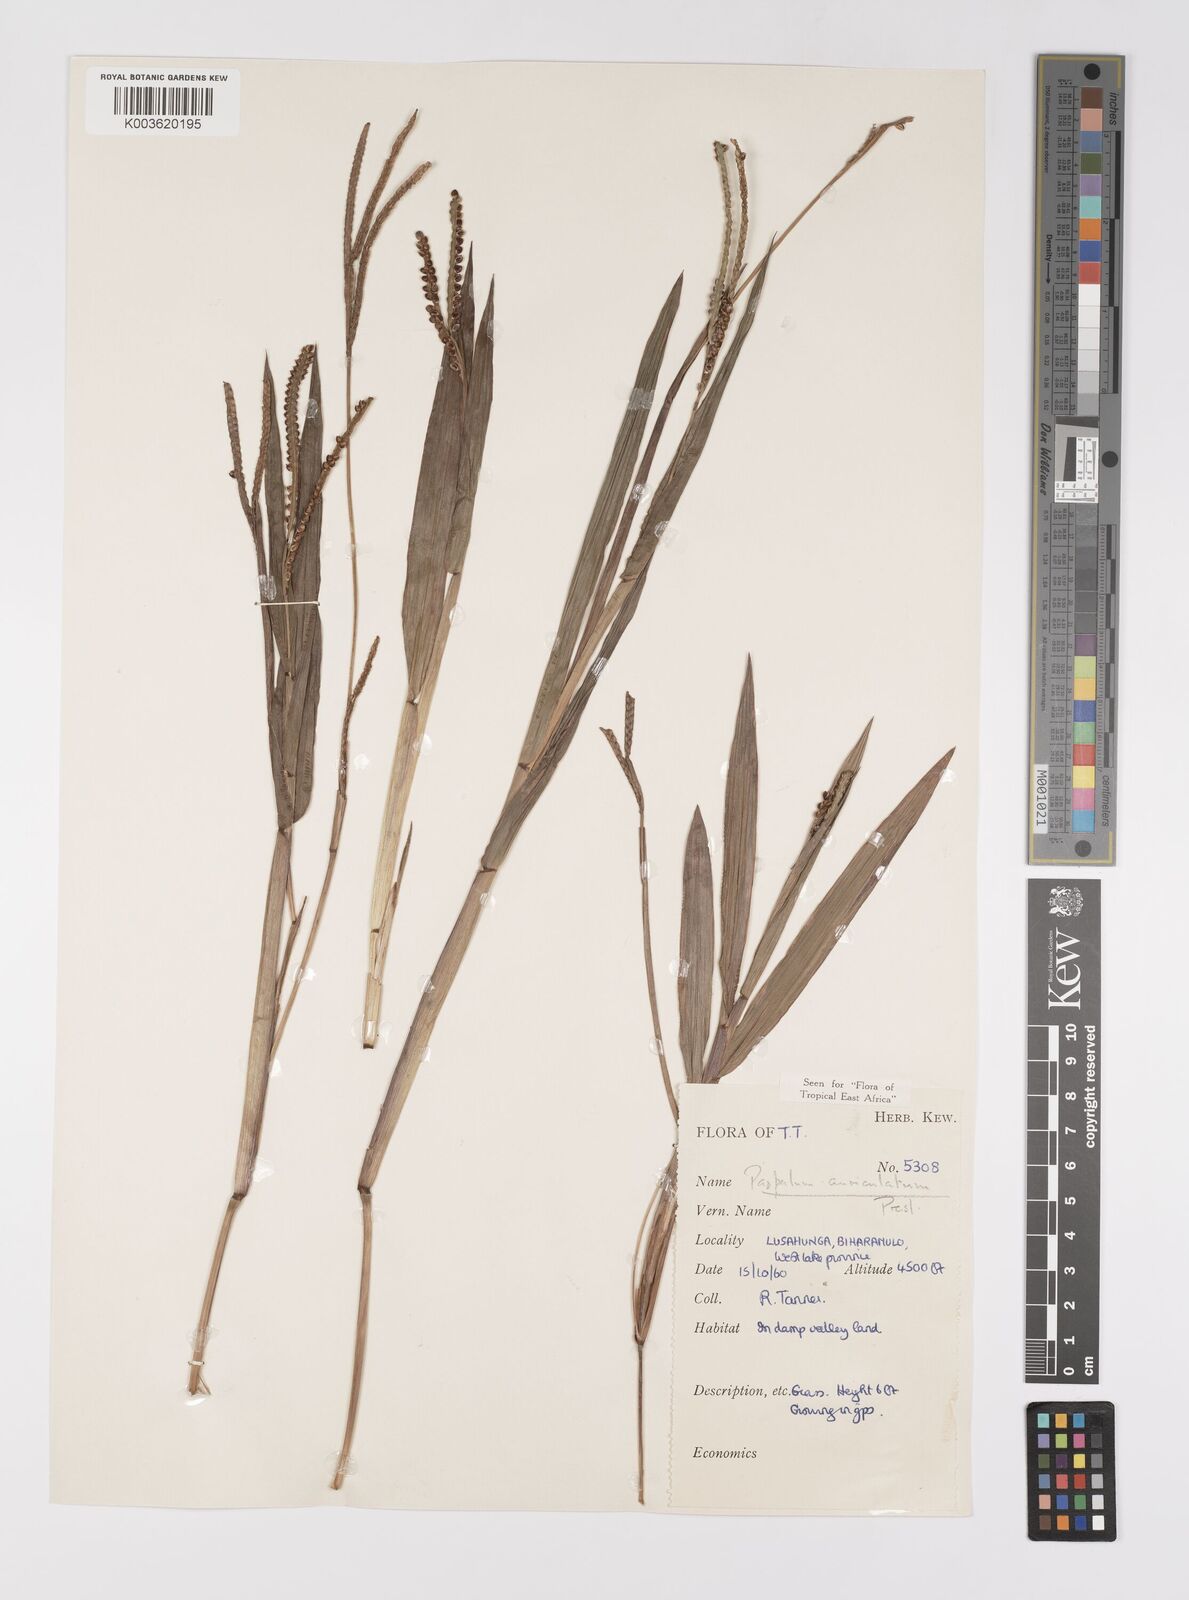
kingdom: Plantae
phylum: Tracheophyta
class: Liliopsida
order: Poales
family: Poaceae
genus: Paspalum
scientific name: Paspalum lamprocaryon
